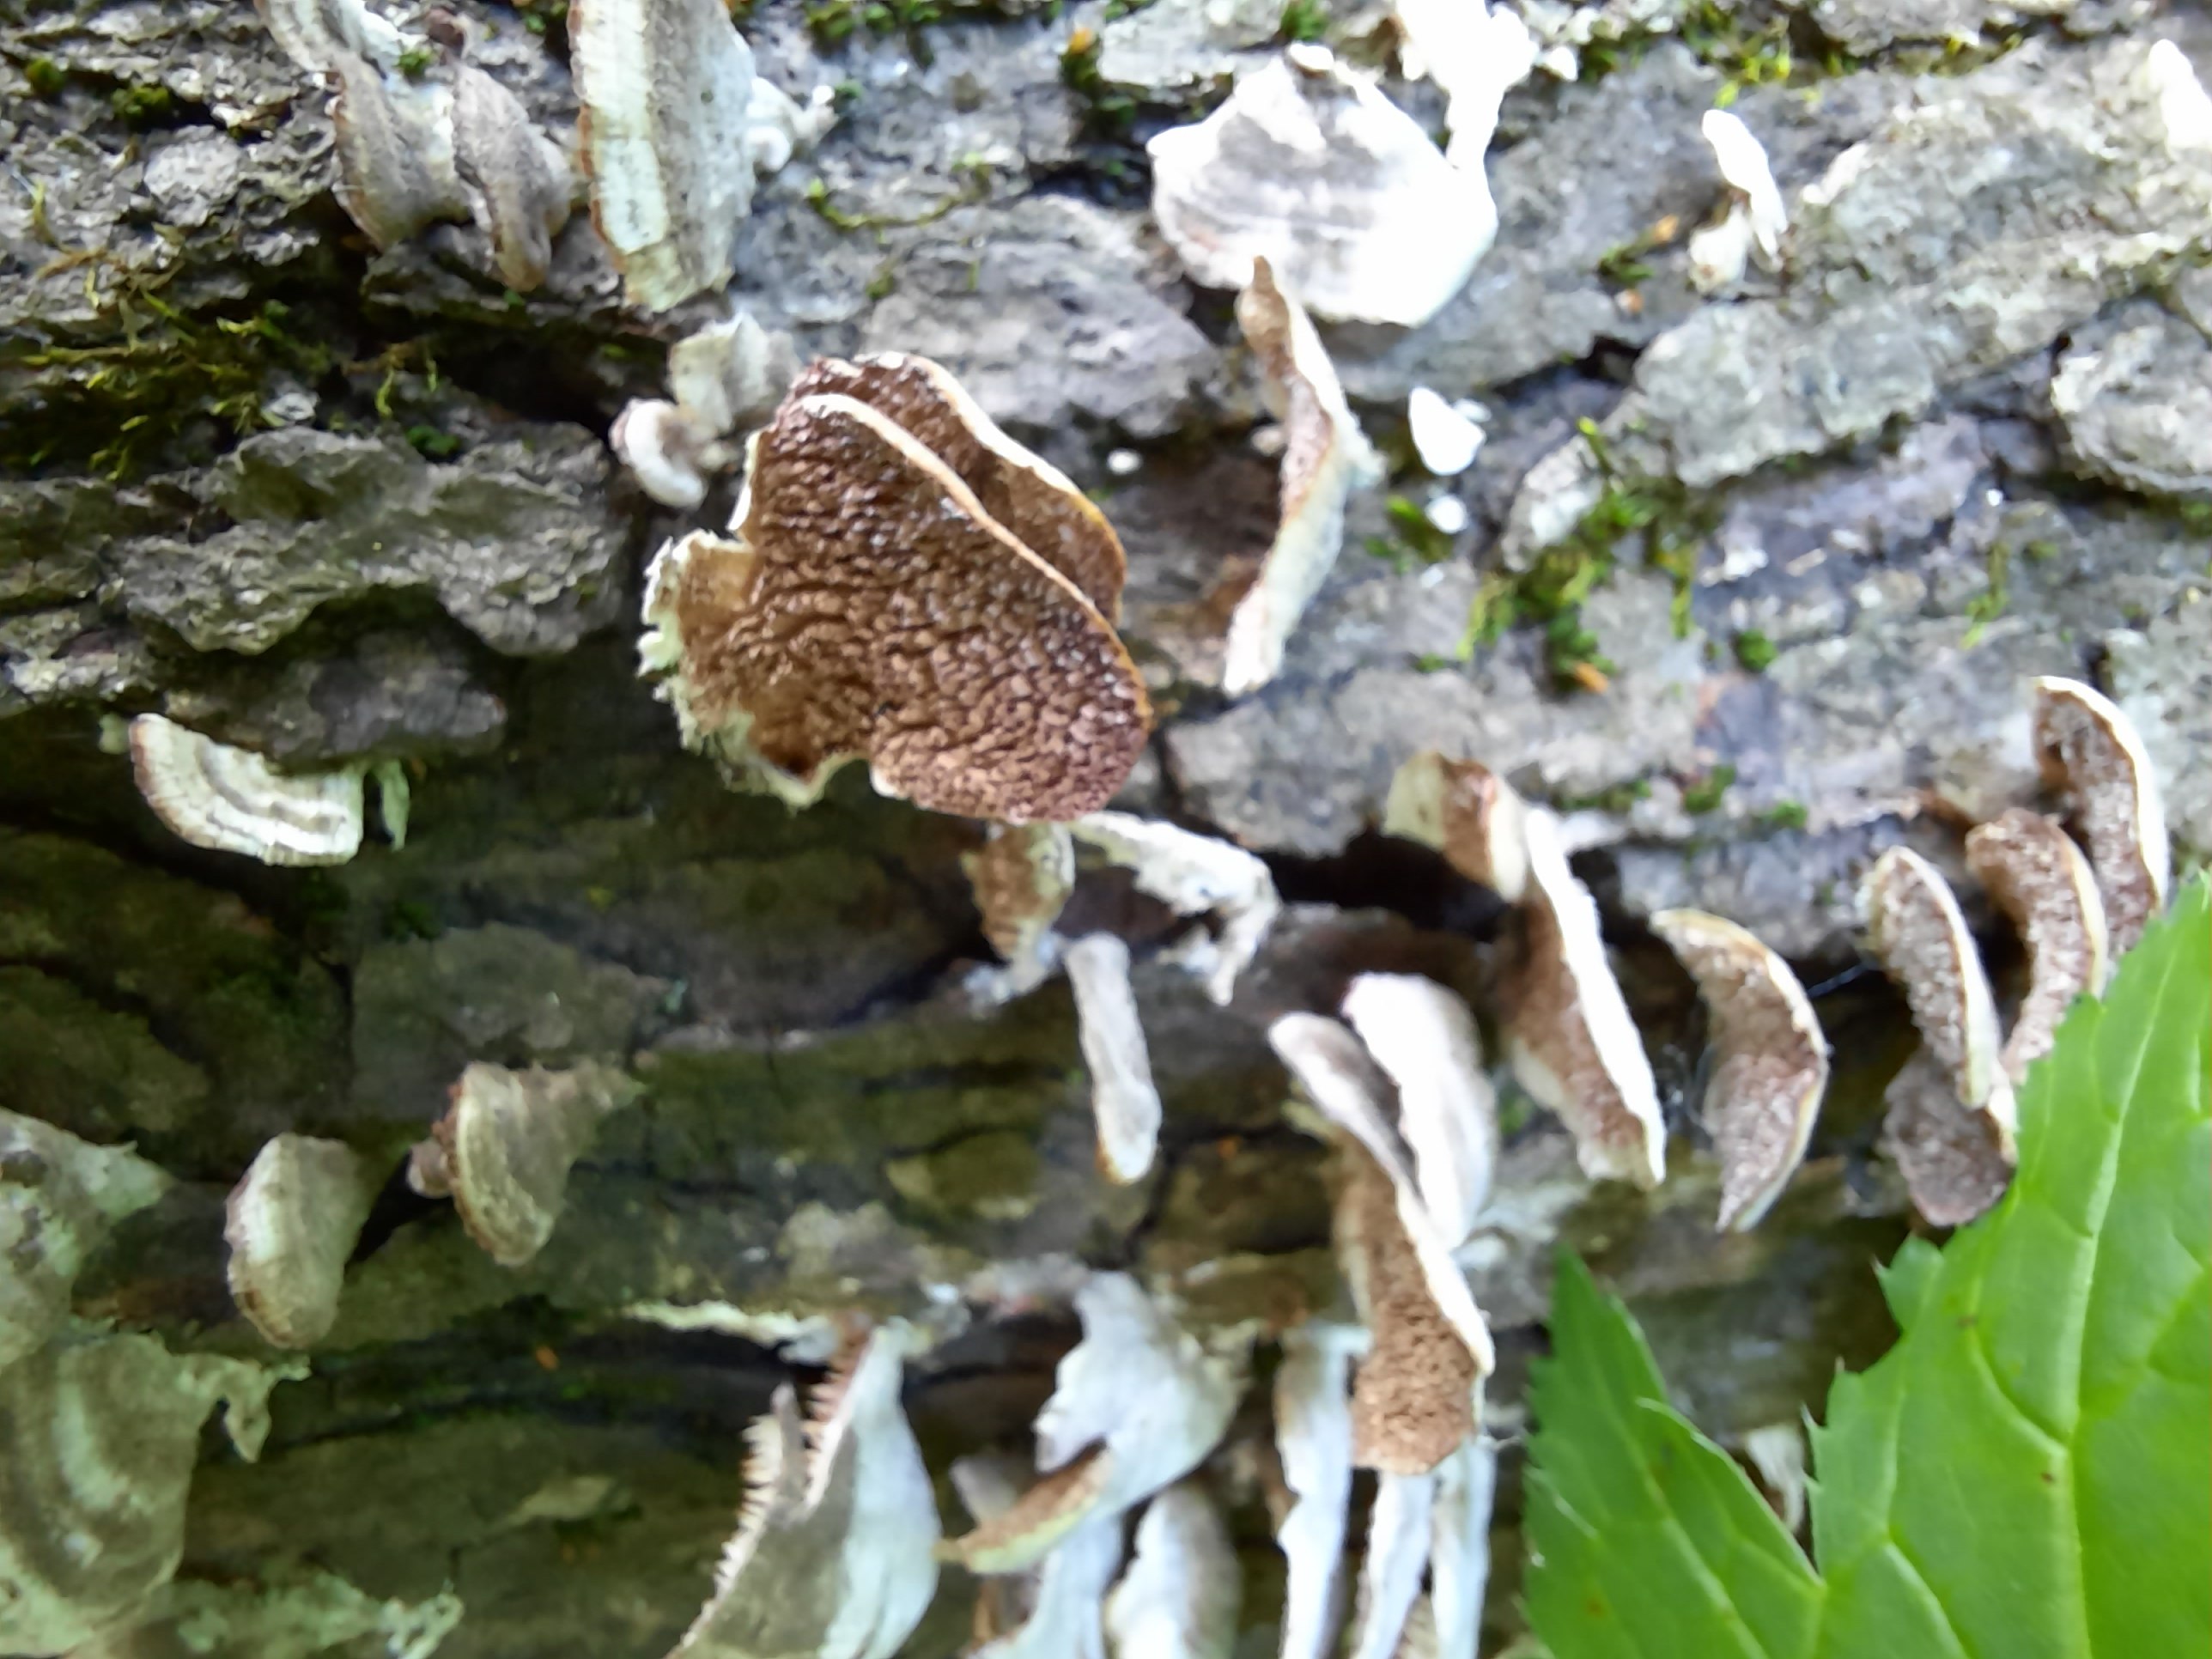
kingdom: Fungi
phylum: Basidiomycota
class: Agaricomycetes
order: Hymenochaetales
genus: Trichaptum
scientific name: Trichaptum biforme
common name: Violet-toothed polypore
